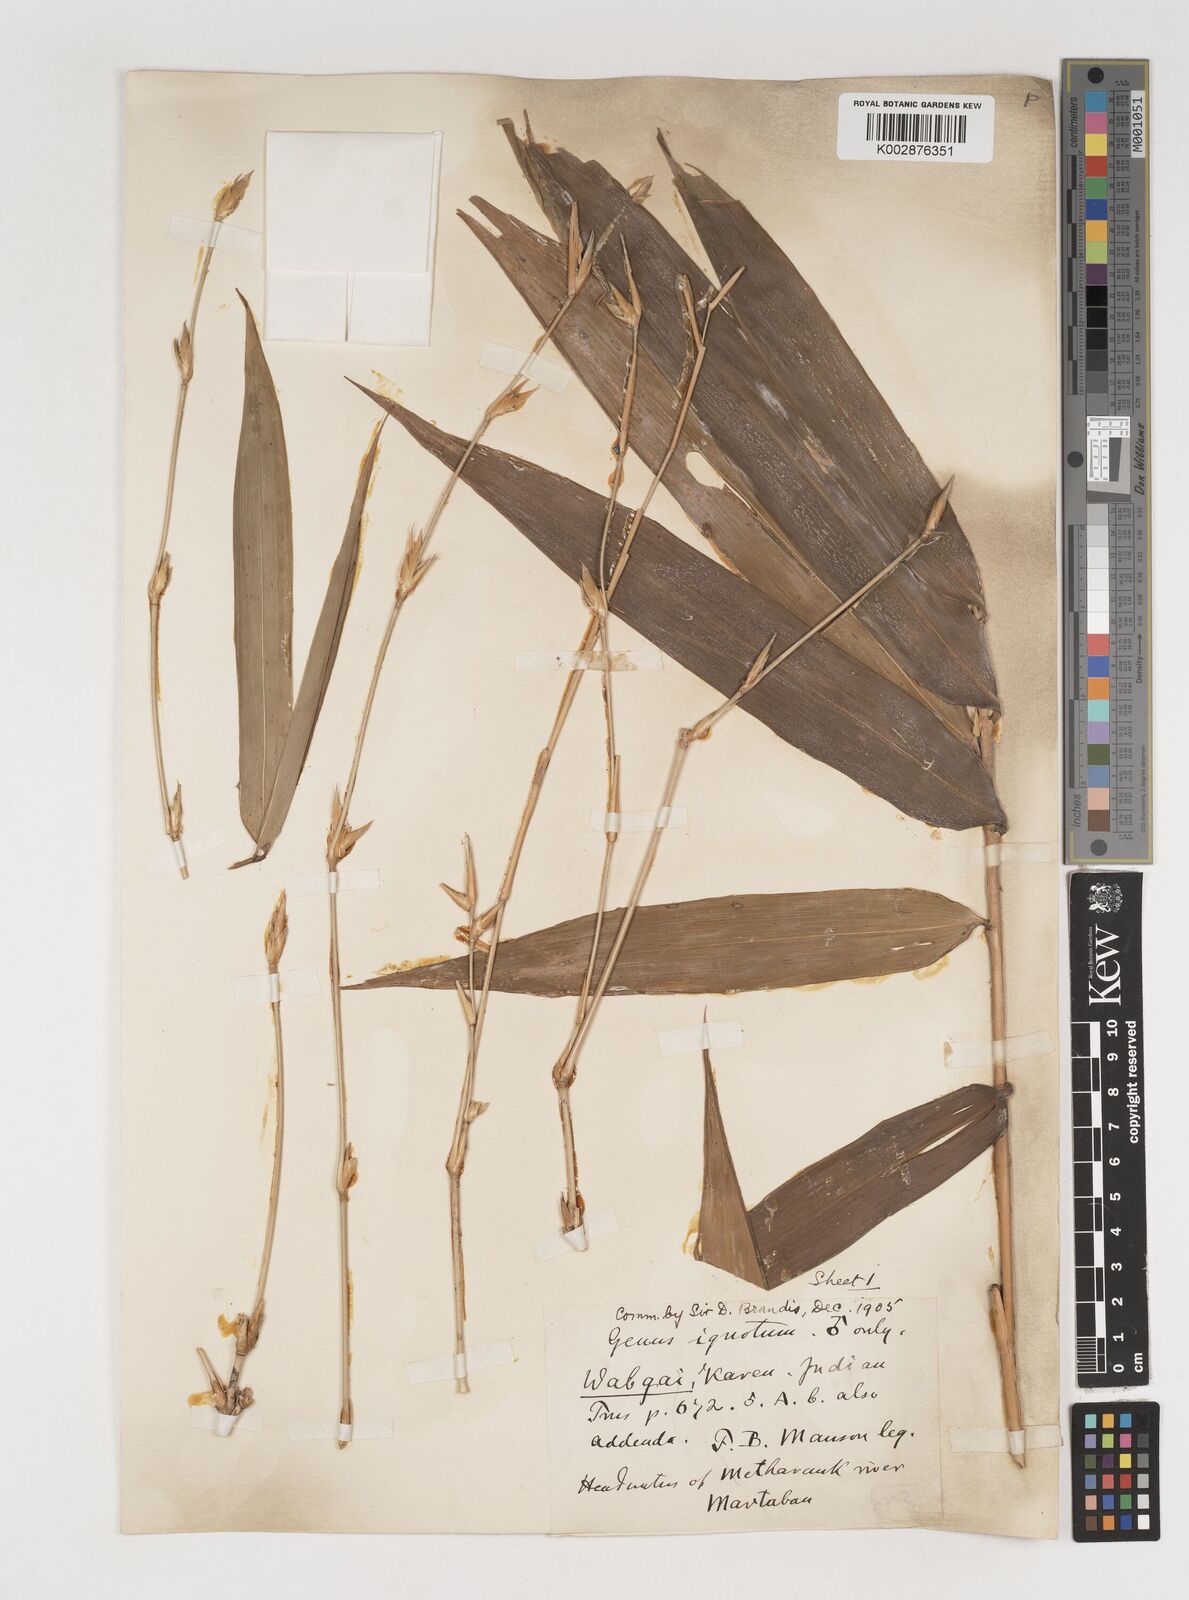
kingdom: Plantae
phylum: Tracheophyta
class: Liliopsida
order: Poales
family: Poaceae
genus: Bambusa
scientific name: Bambusa burmanica
